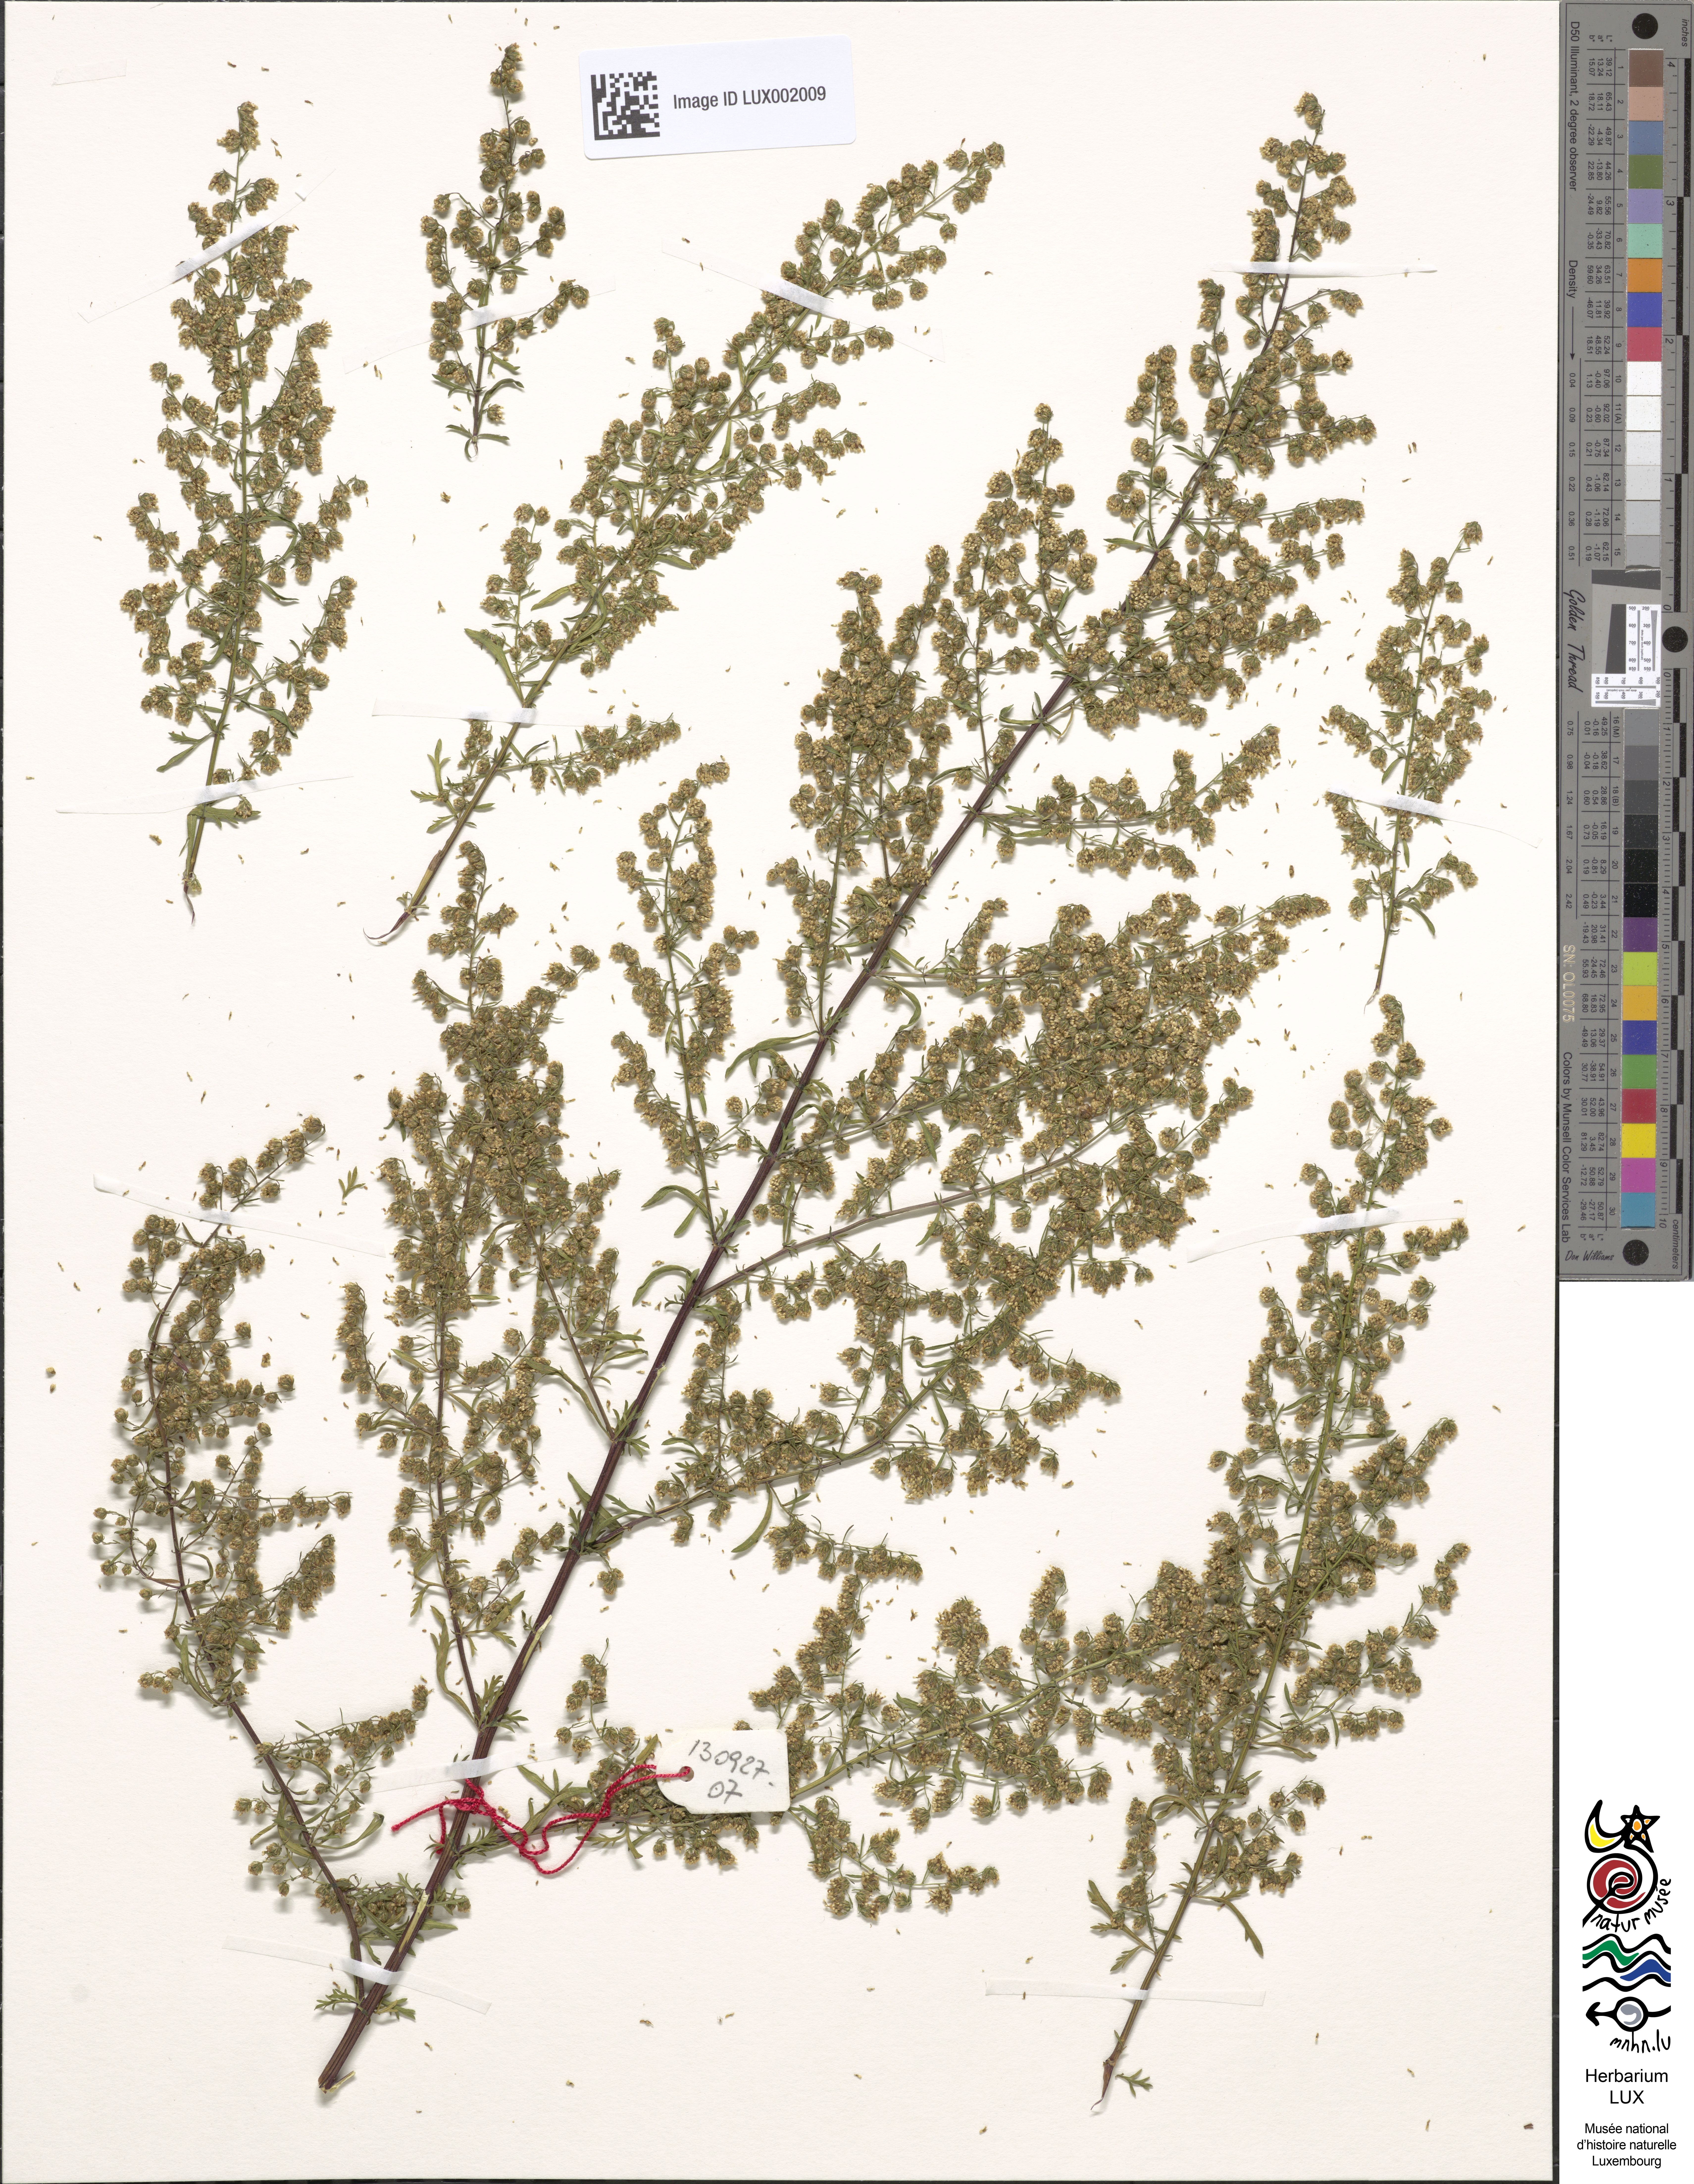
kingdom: Plantae
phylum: Tracheophyta
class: Magnoliopsida
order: Asterales
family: Asteraceae
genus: Artemisia
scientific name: Artemisia annua
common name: Sweet sagewort
